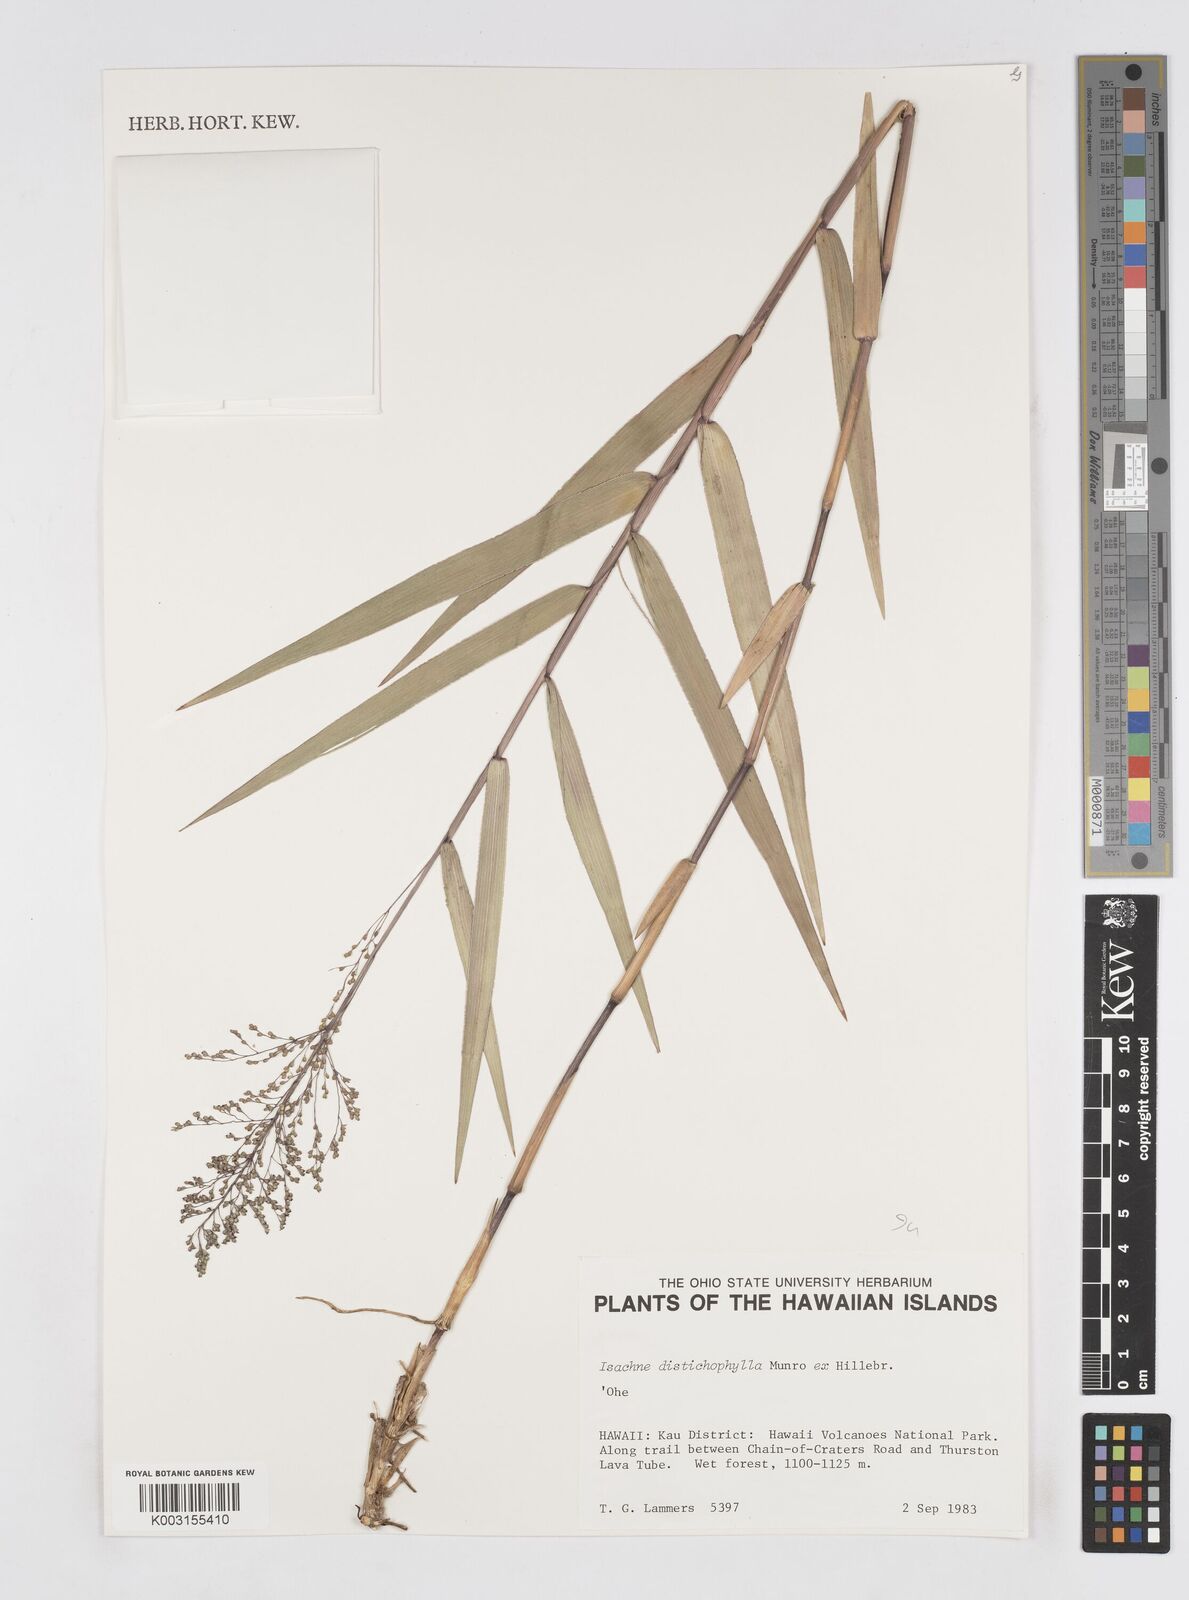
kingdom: Plantae
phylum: Tracheophyta
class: Liliopsida
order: Poales
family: Poaceae
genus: Isachne
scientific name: Isachne distichophylla
